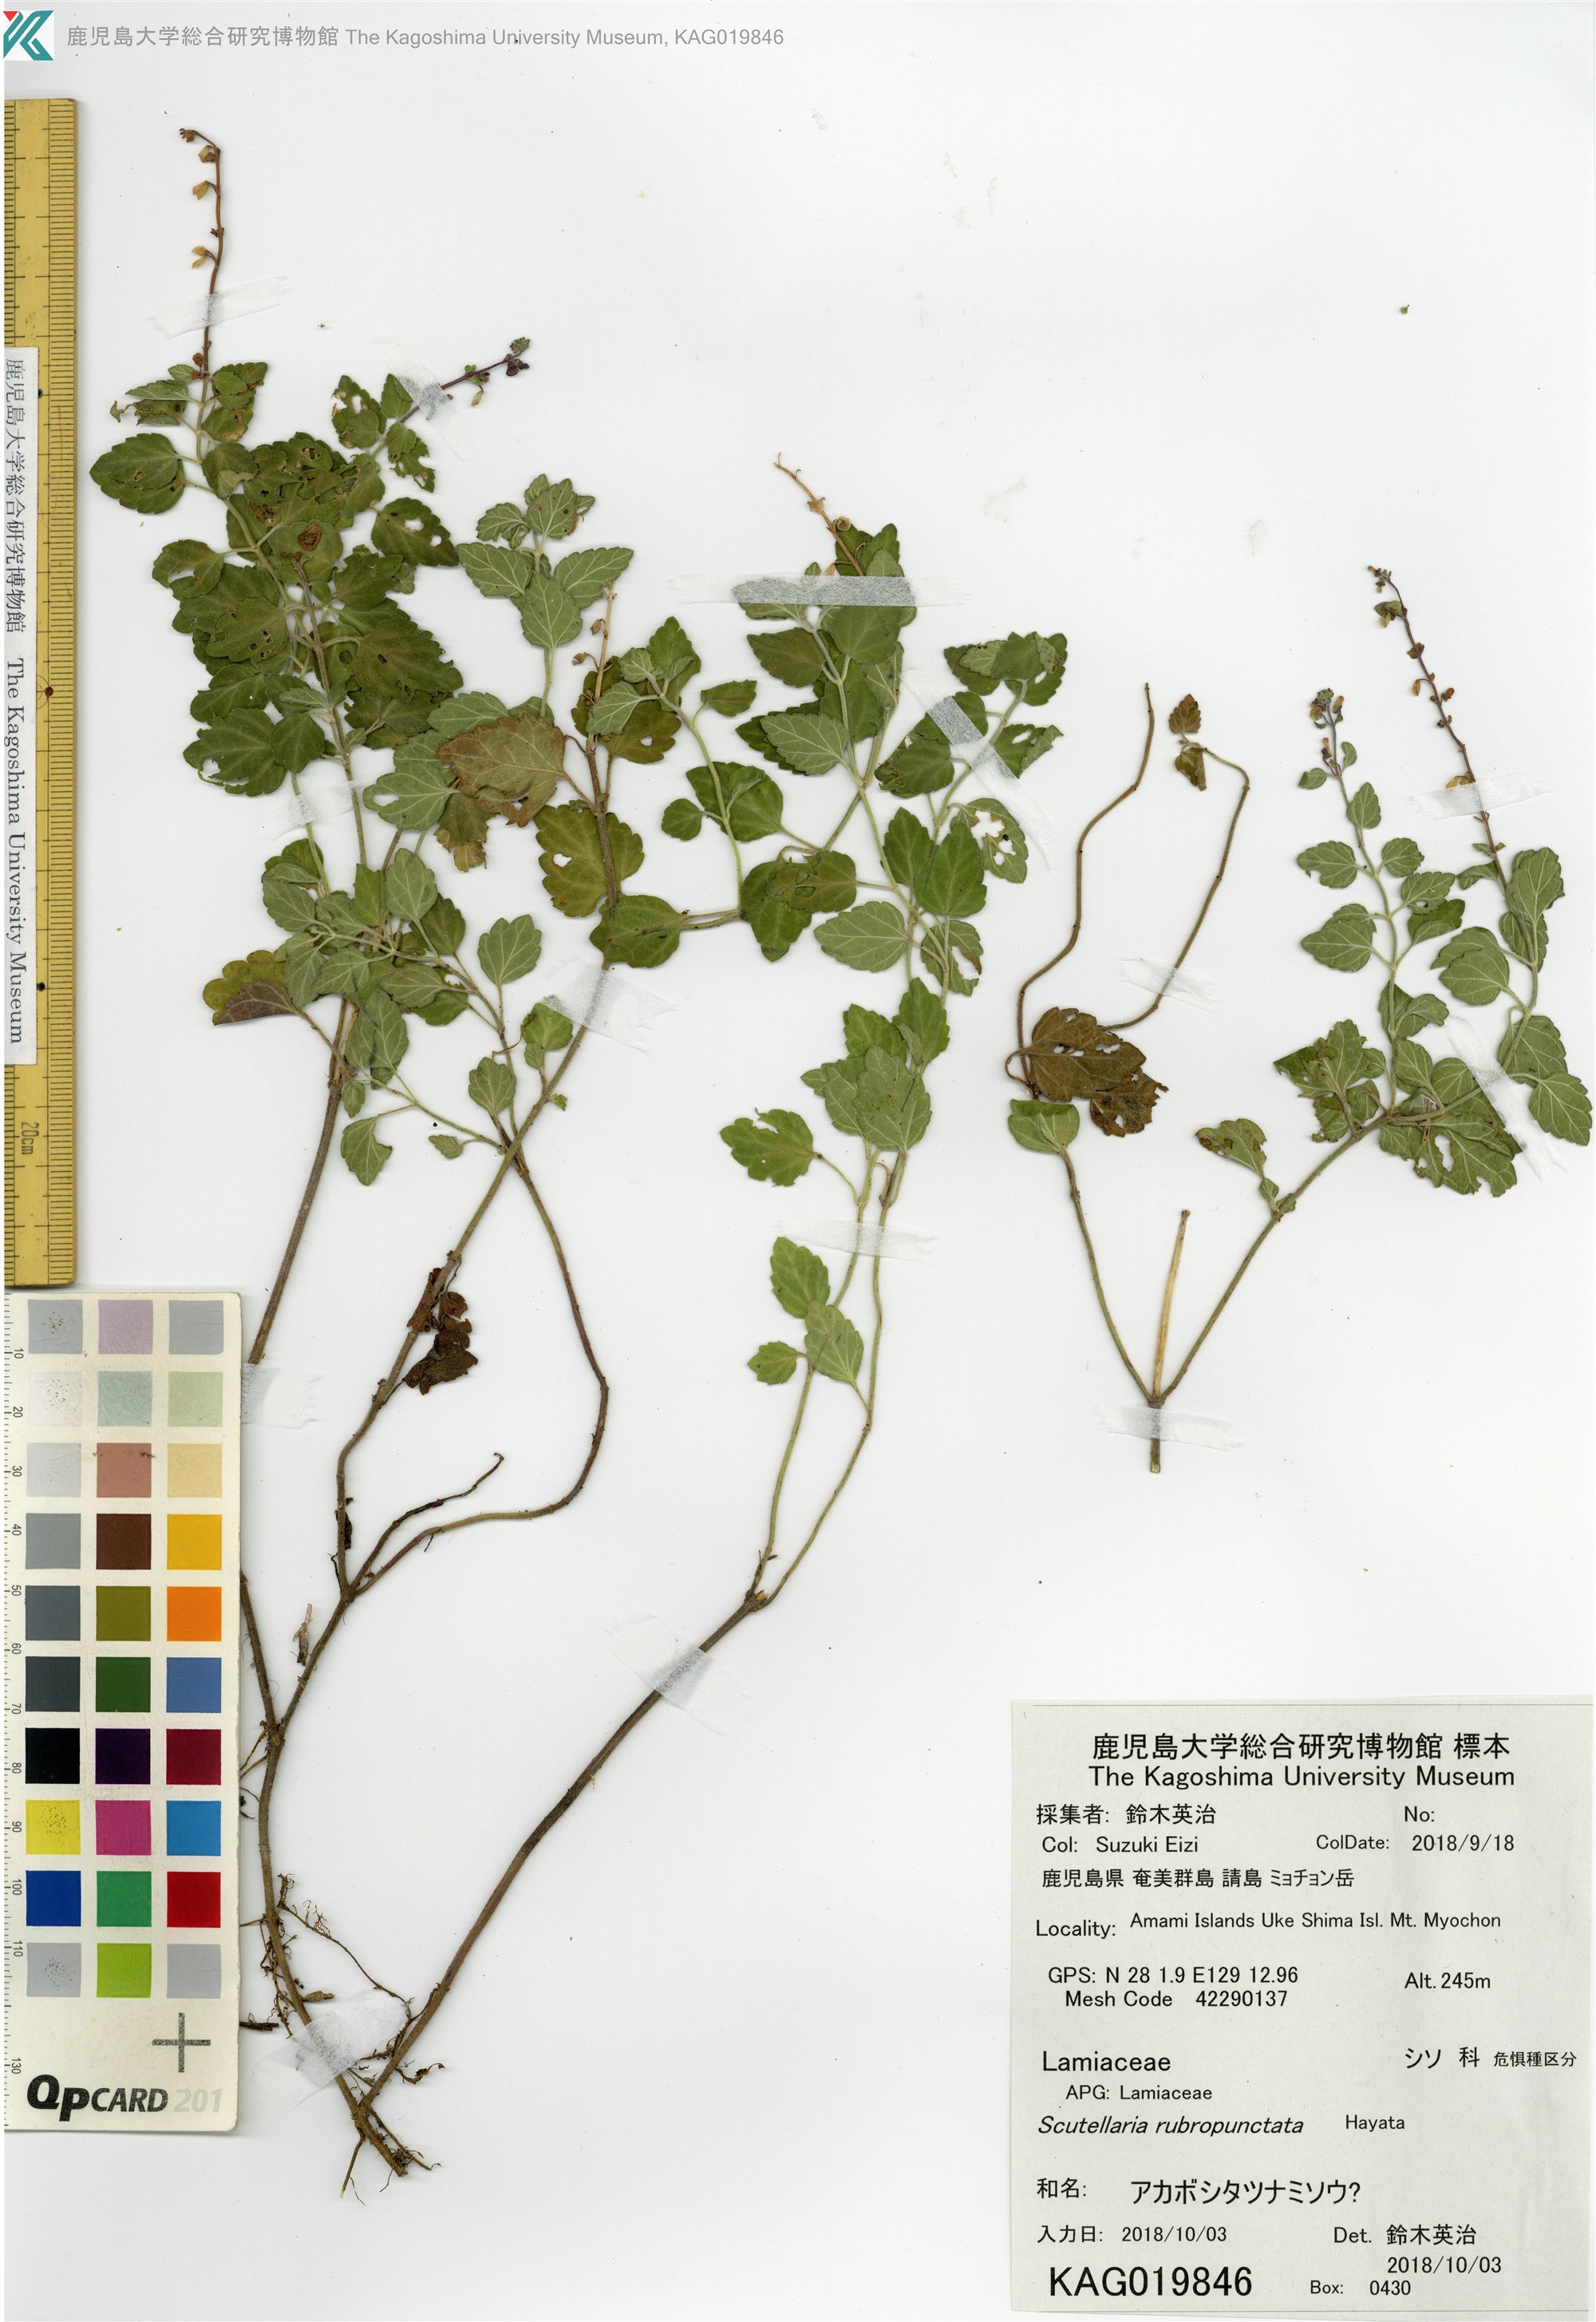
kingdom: Plantae
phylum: Tracheophyta
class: Magnoliopsida
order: Lamiales
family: Lamiaceae
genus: Scutellaria
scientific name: Scutellaria rubropunctata
